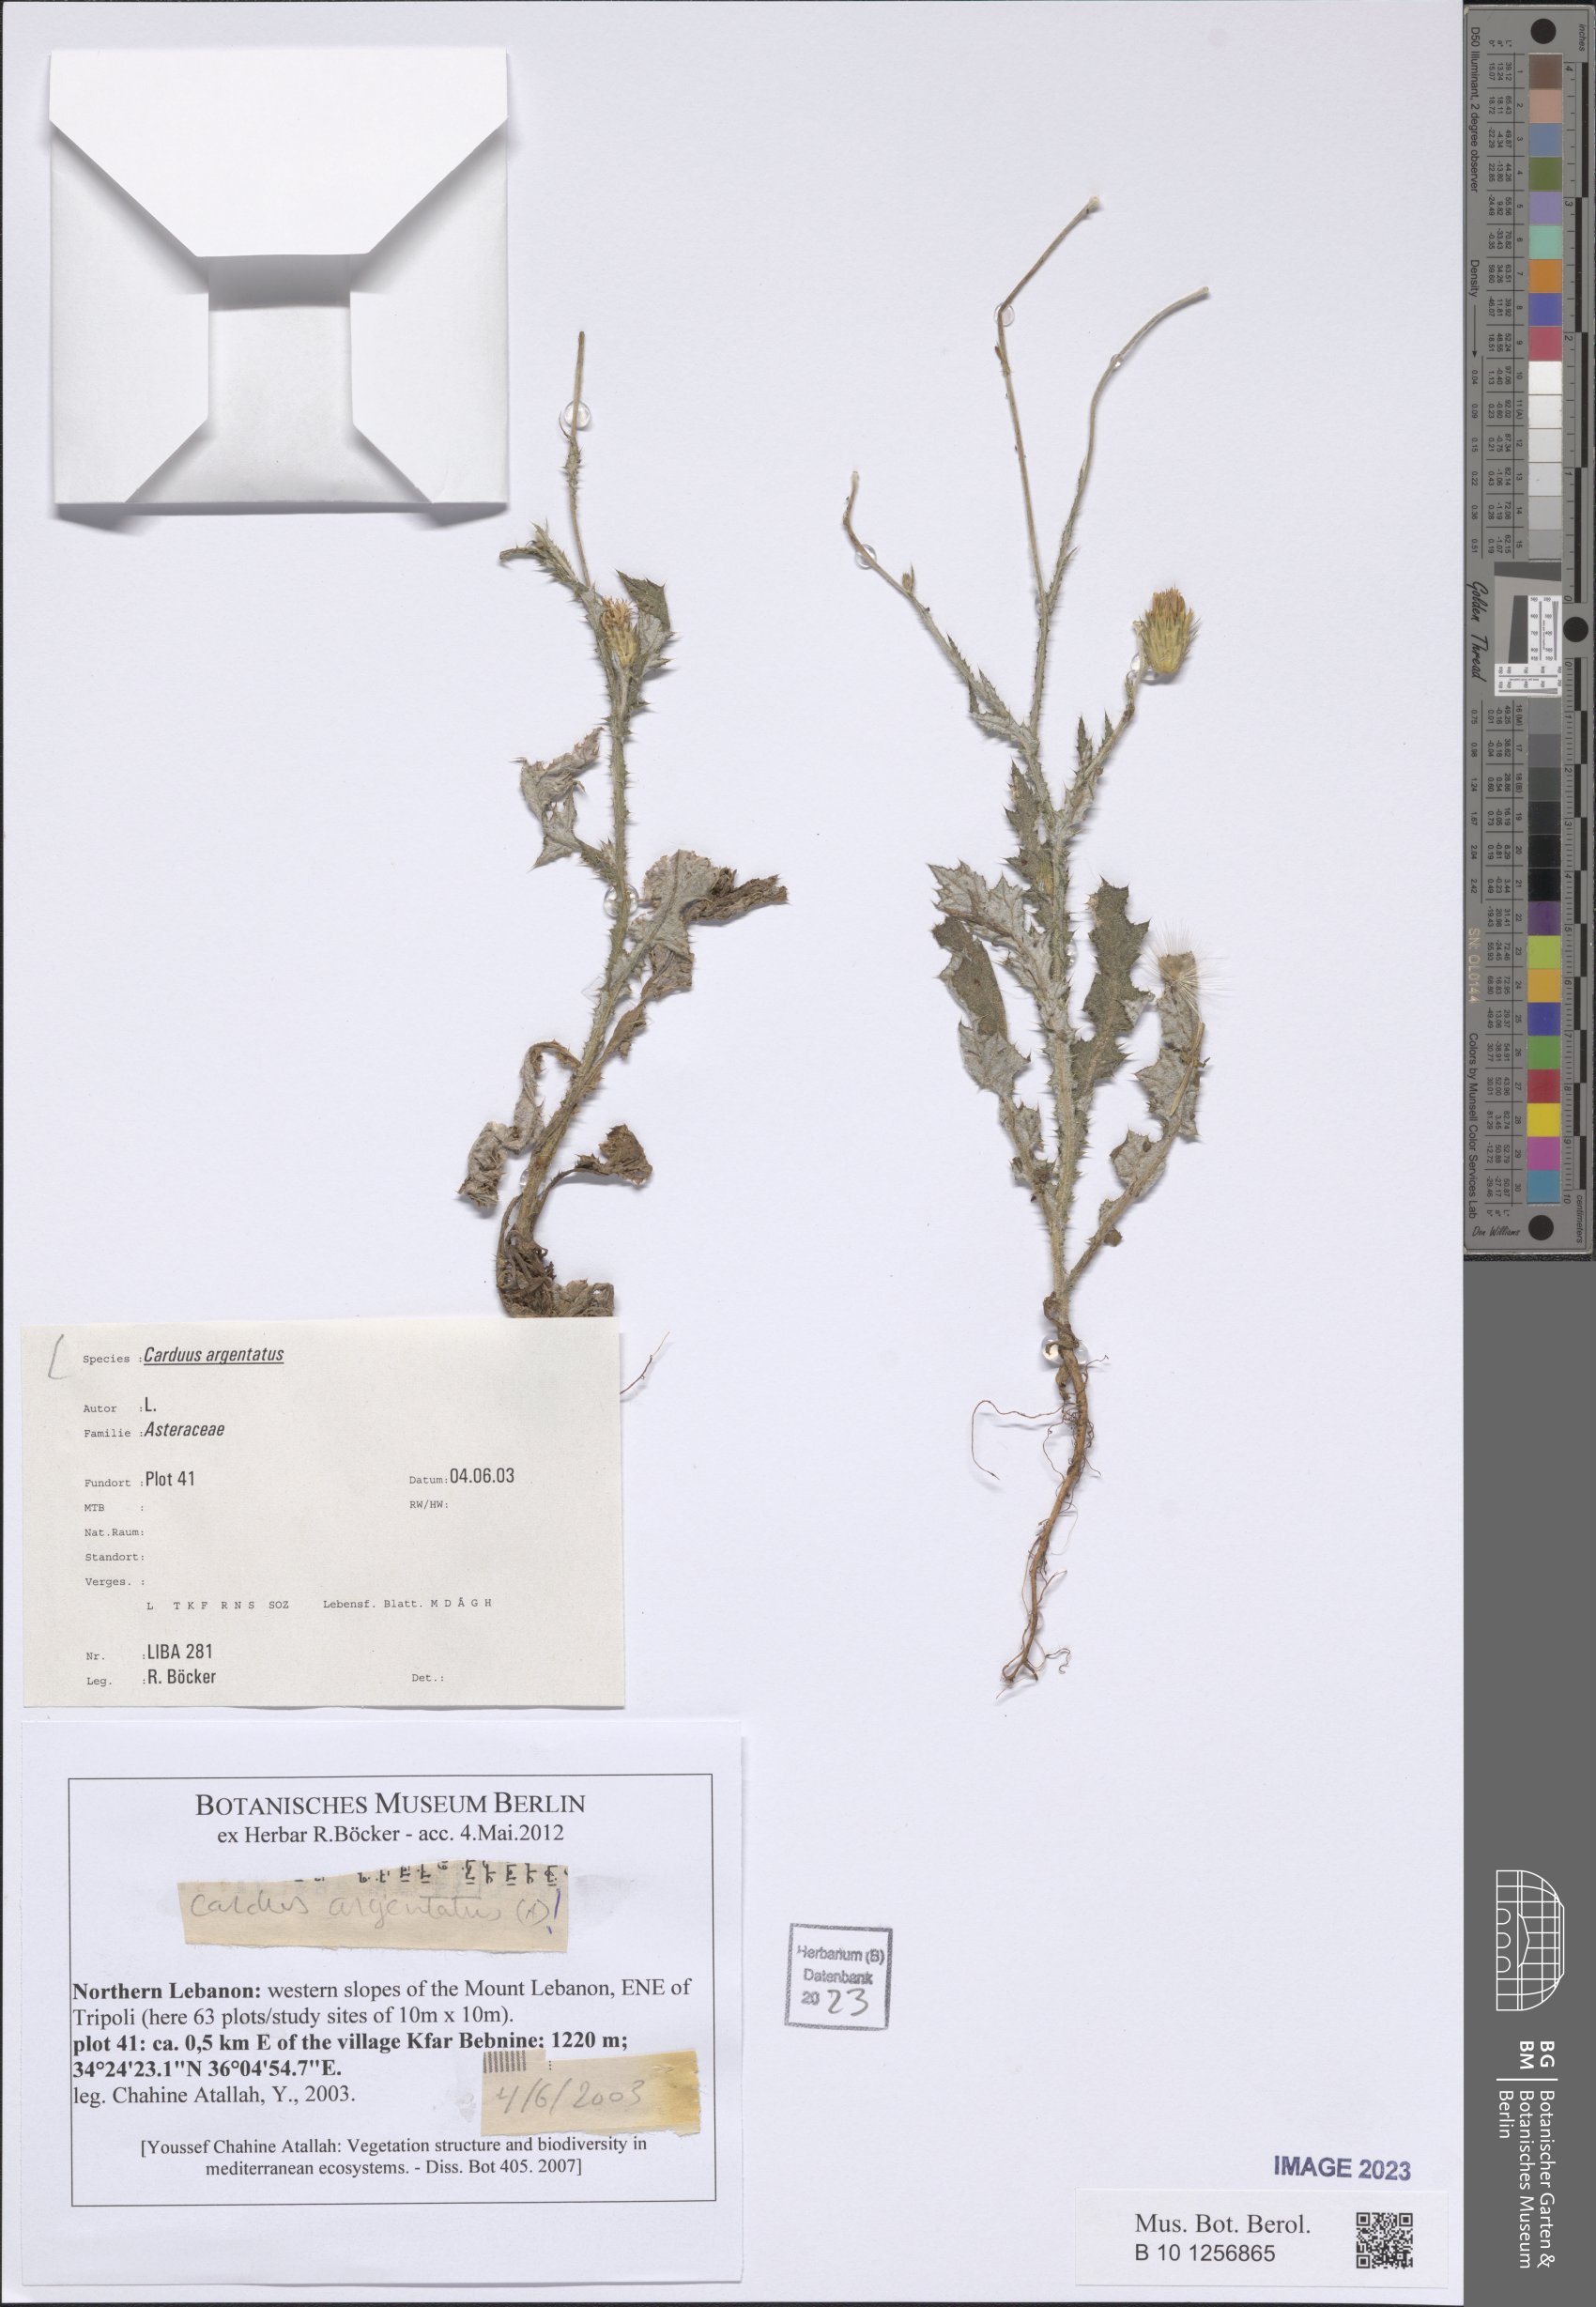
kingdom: Plantae
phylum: Tracheophyta
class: Magnoliopsida
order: Asterales
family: Asteraceae
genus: Carduus
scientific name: Carduus argentatus
